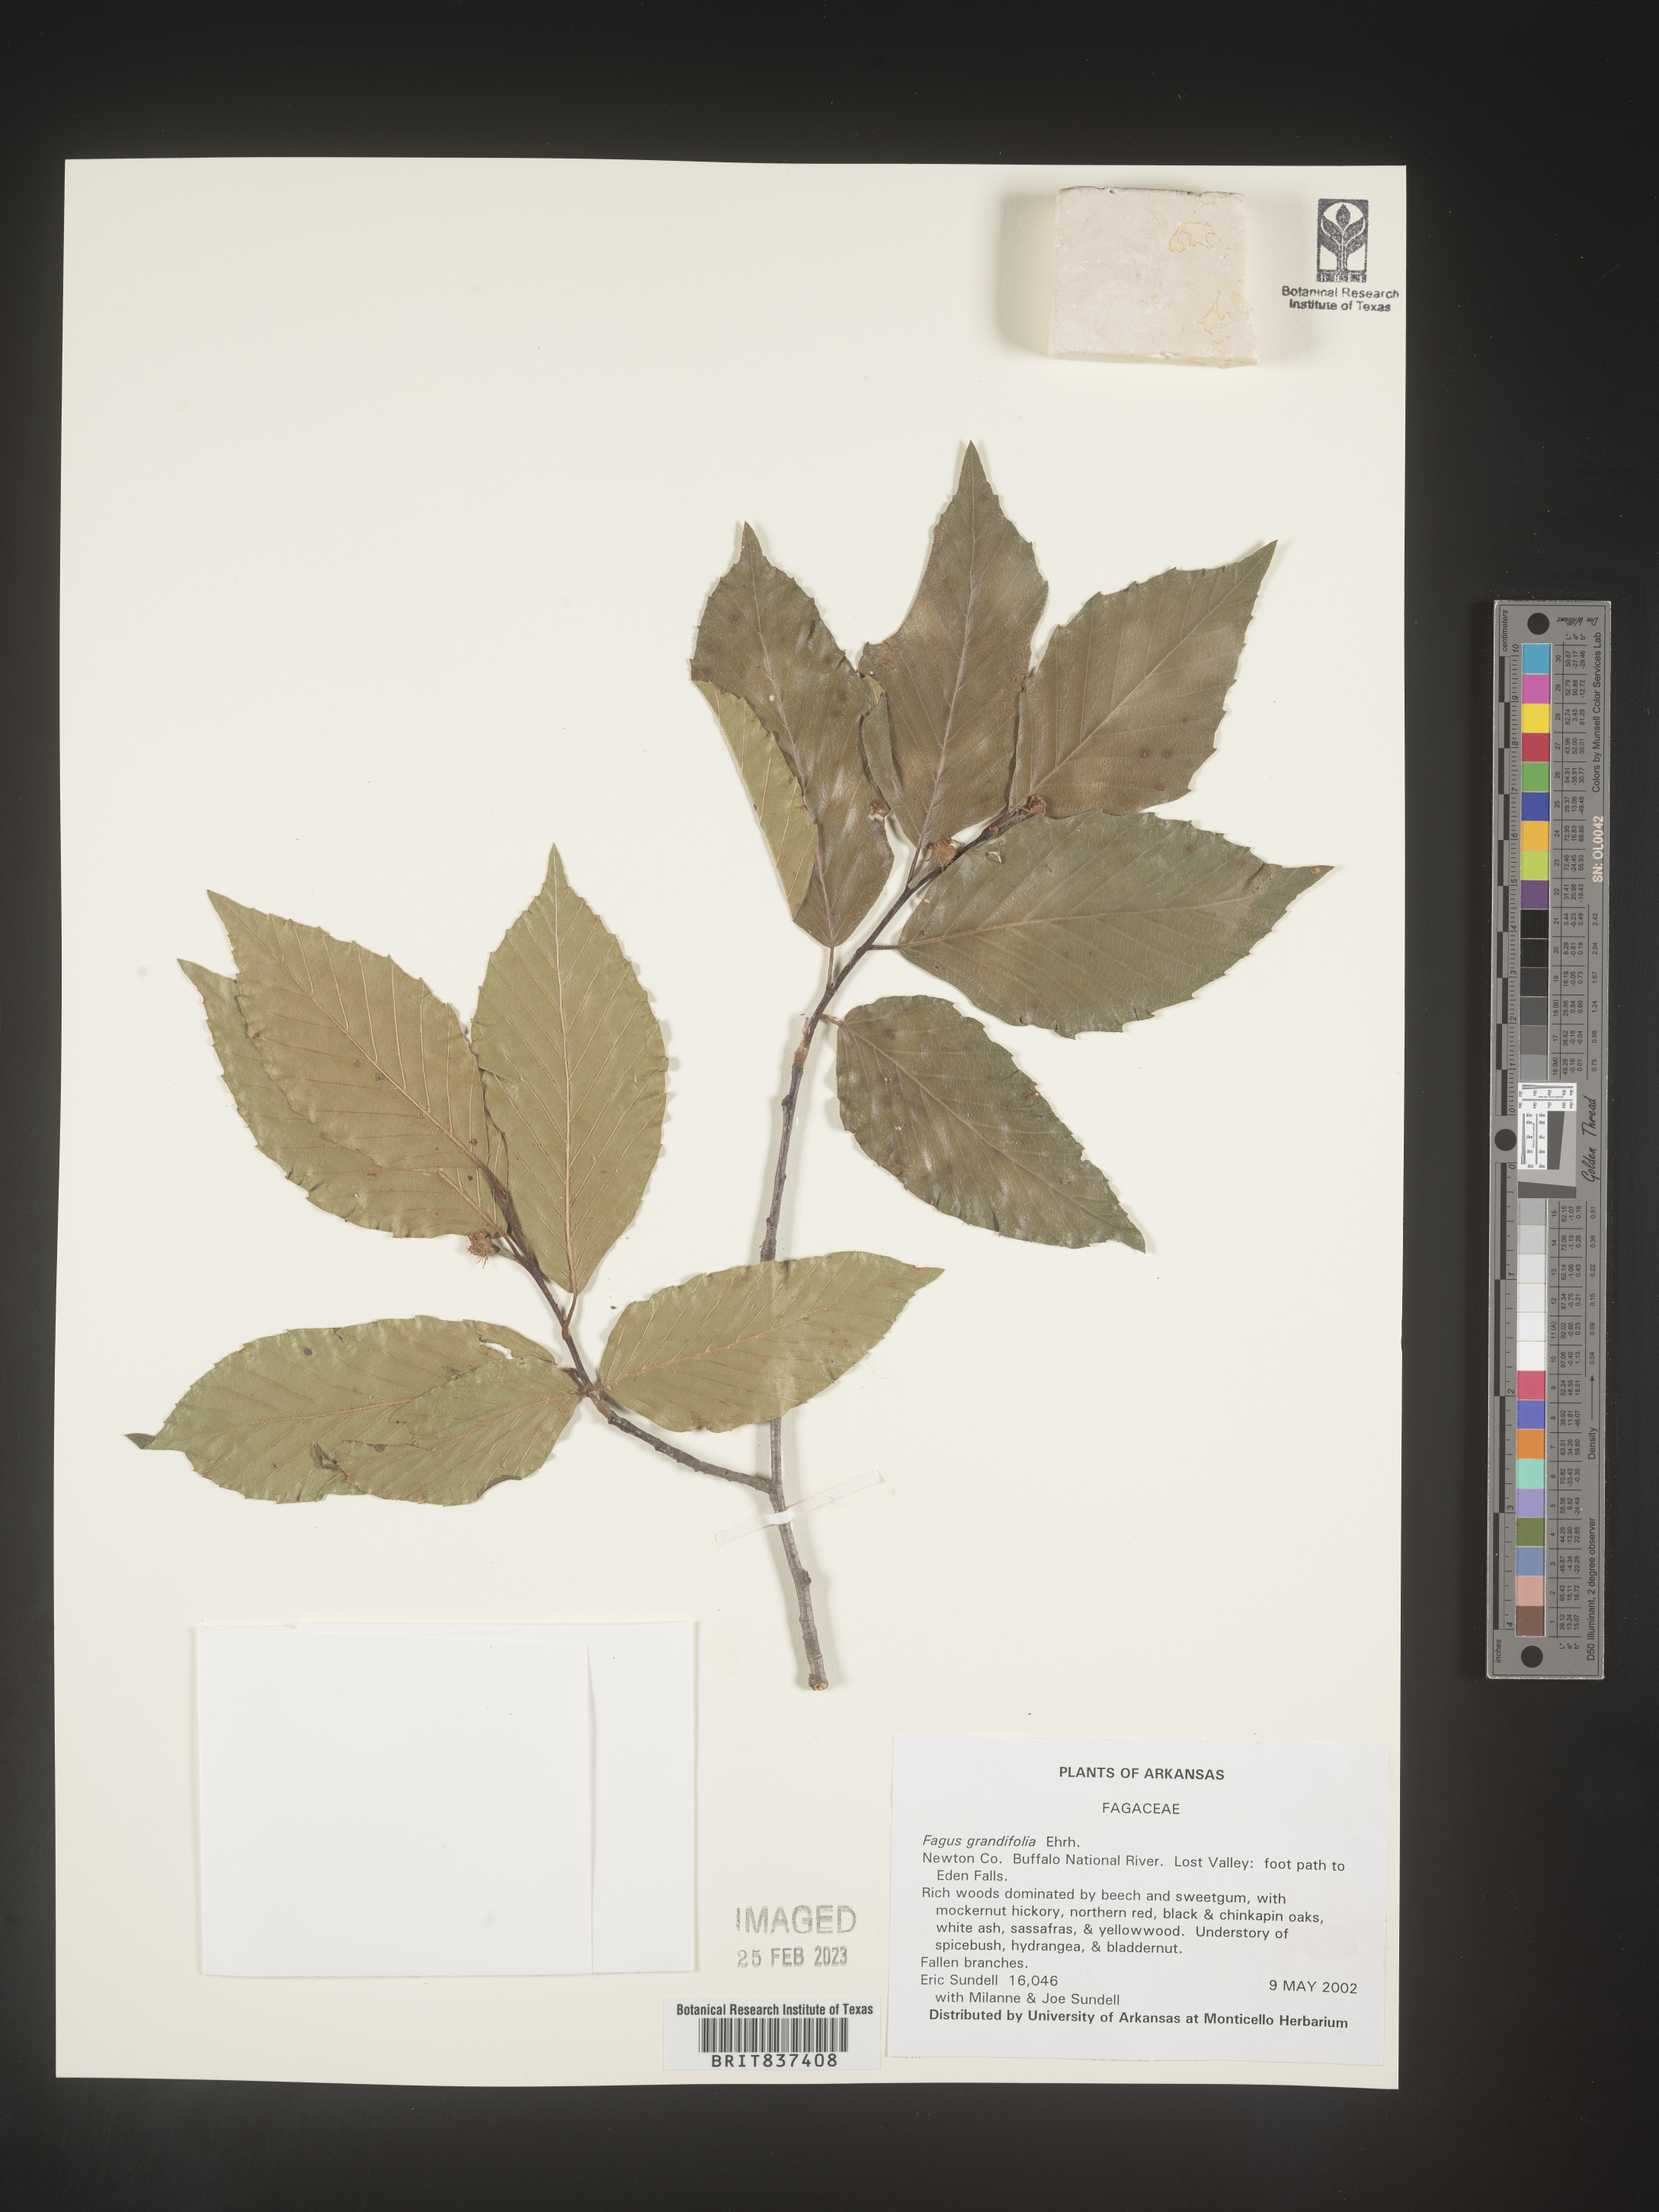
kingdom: Plantae
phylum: Tracheophyta
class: Magnoliopsida
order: Fagales
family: Fagaceae
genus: Fagus
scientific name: Fagus grandifolia
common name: American beech
